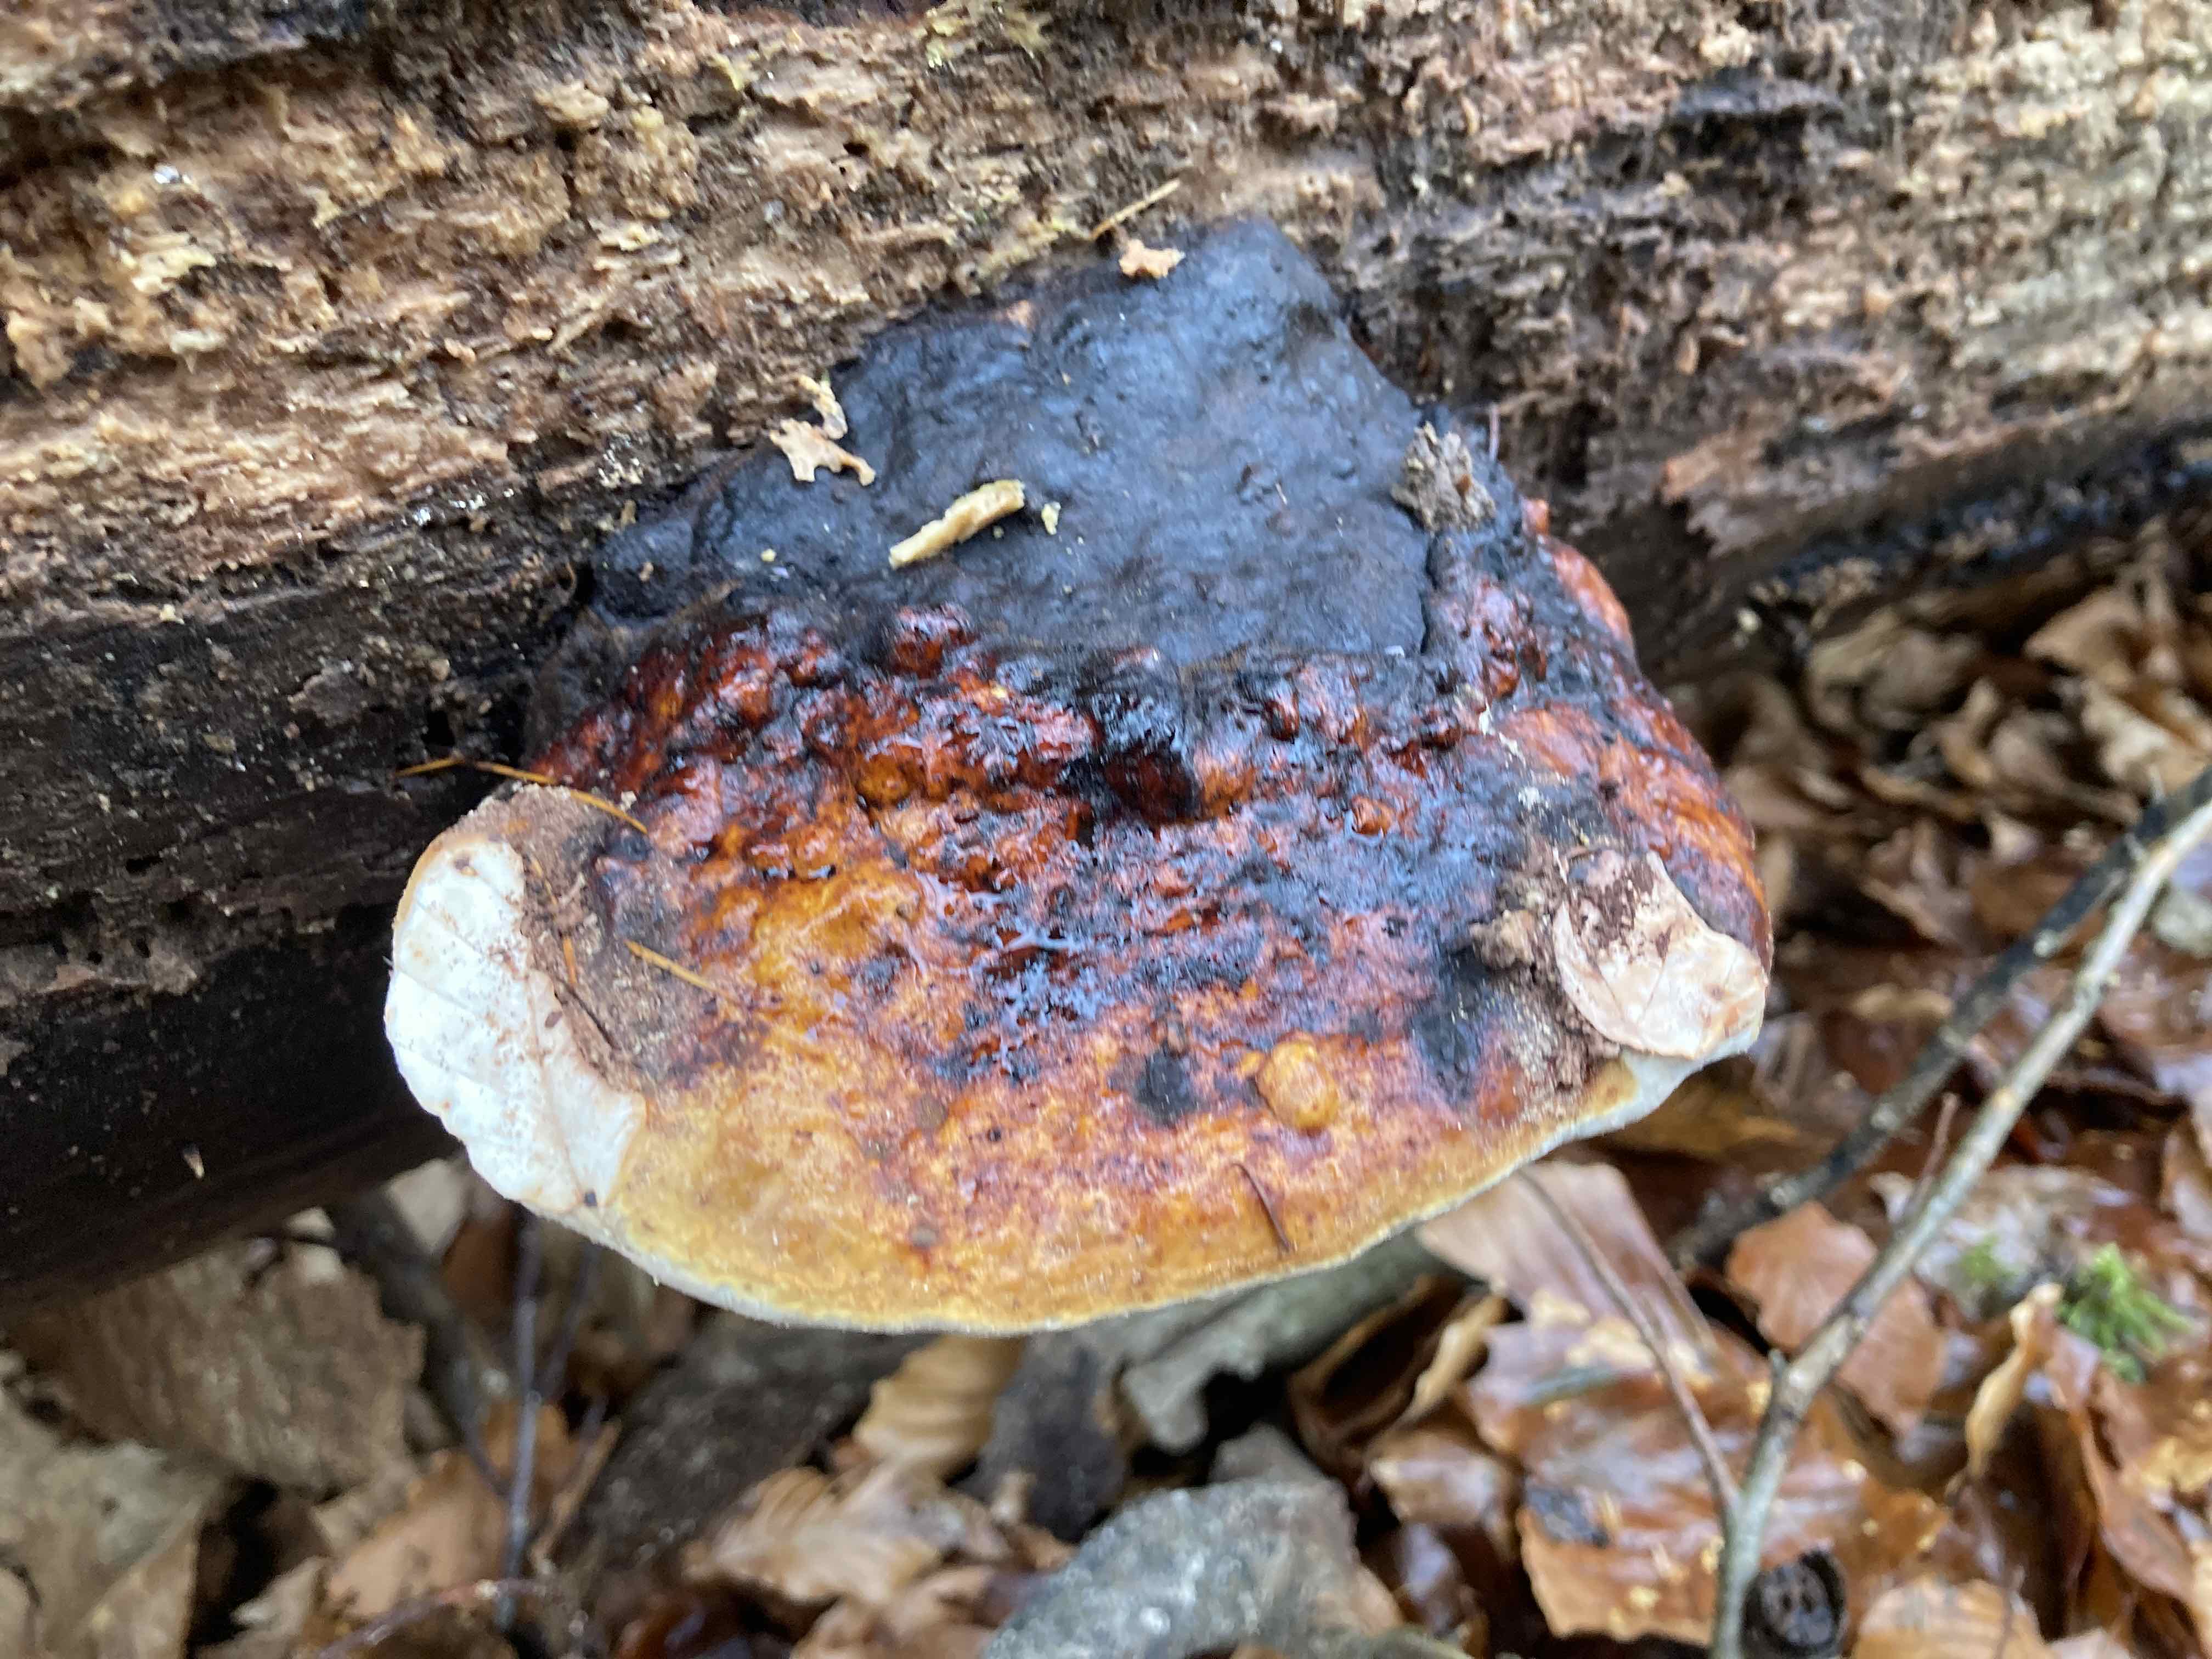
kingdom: Fungi
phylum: Basidiomycota
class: Agaricomycetes
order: Polyporales
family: Fomitopsidaceae
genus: Fomitopsis
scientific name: Fomitopsis pinicola
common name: randbæltet hovporesvamp
